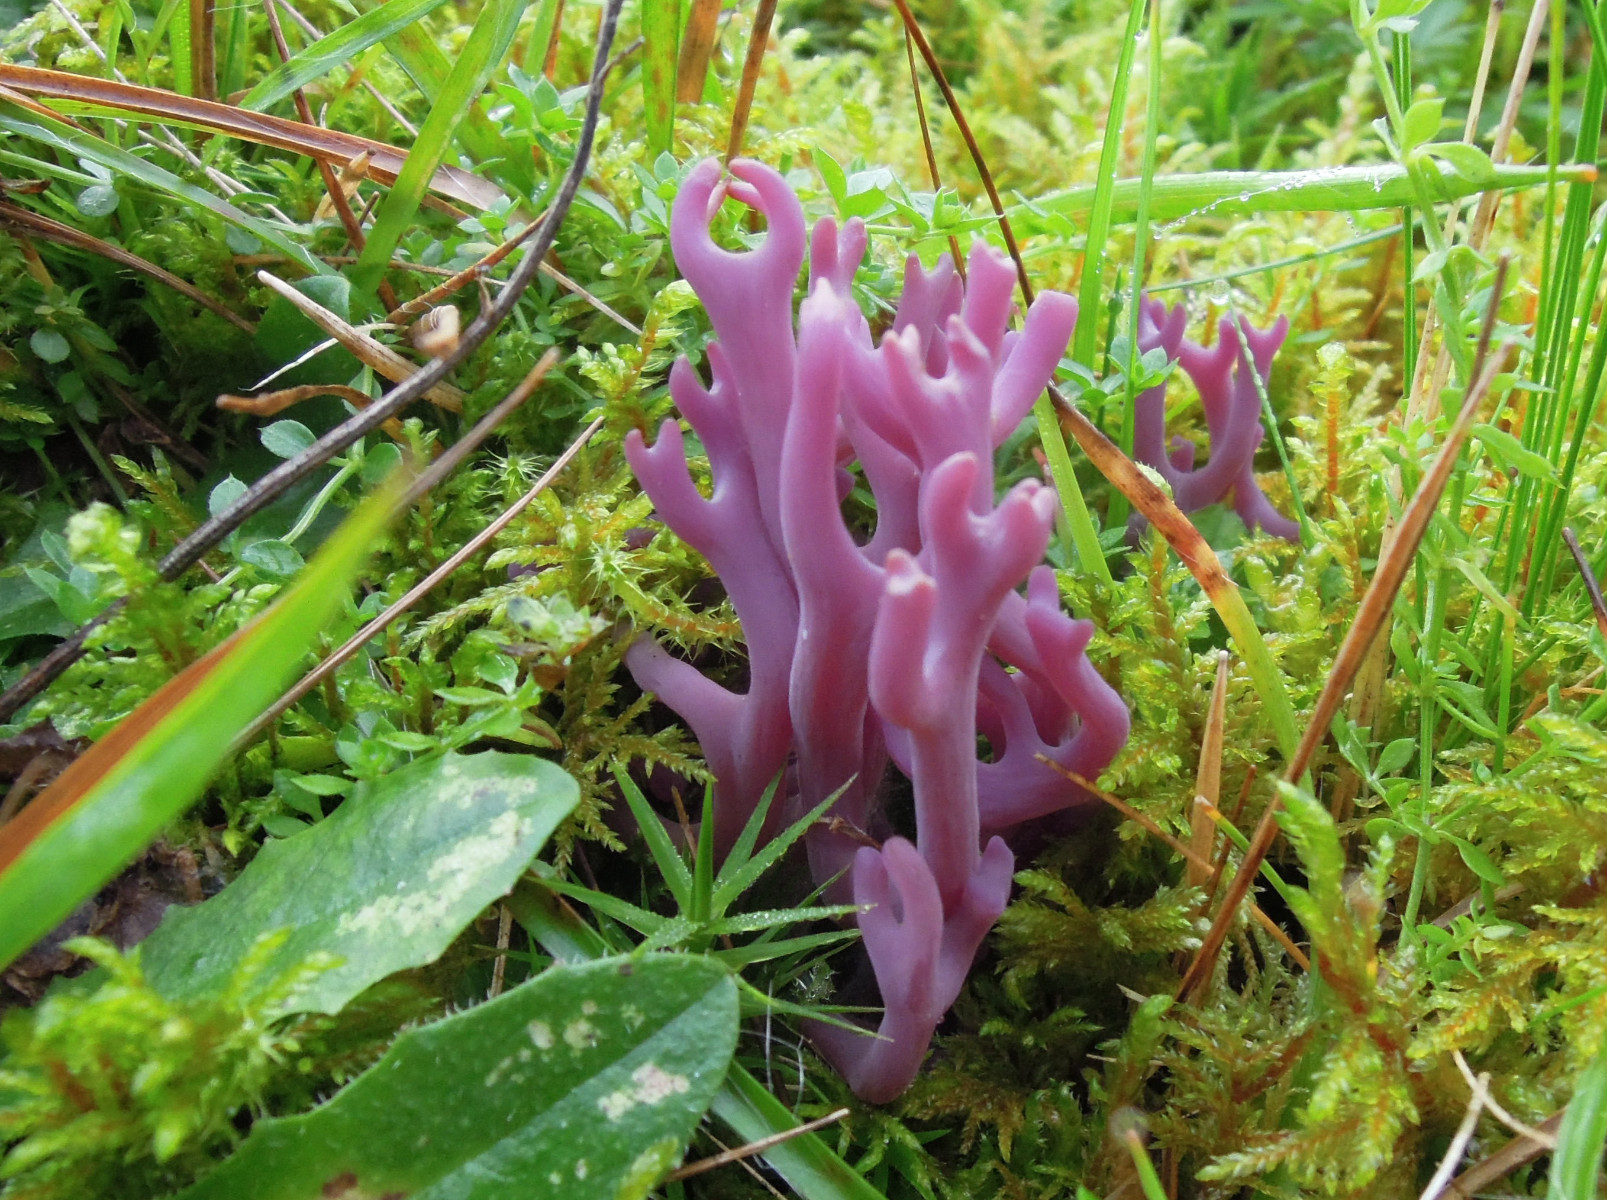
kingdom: Fungi
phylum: Basidiomycota
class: Agaricomycetes
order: Agaricales
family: Clavariaceae
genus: Clavaria
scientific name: Clavaria zollingeri
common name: purpur-køllesvamp
